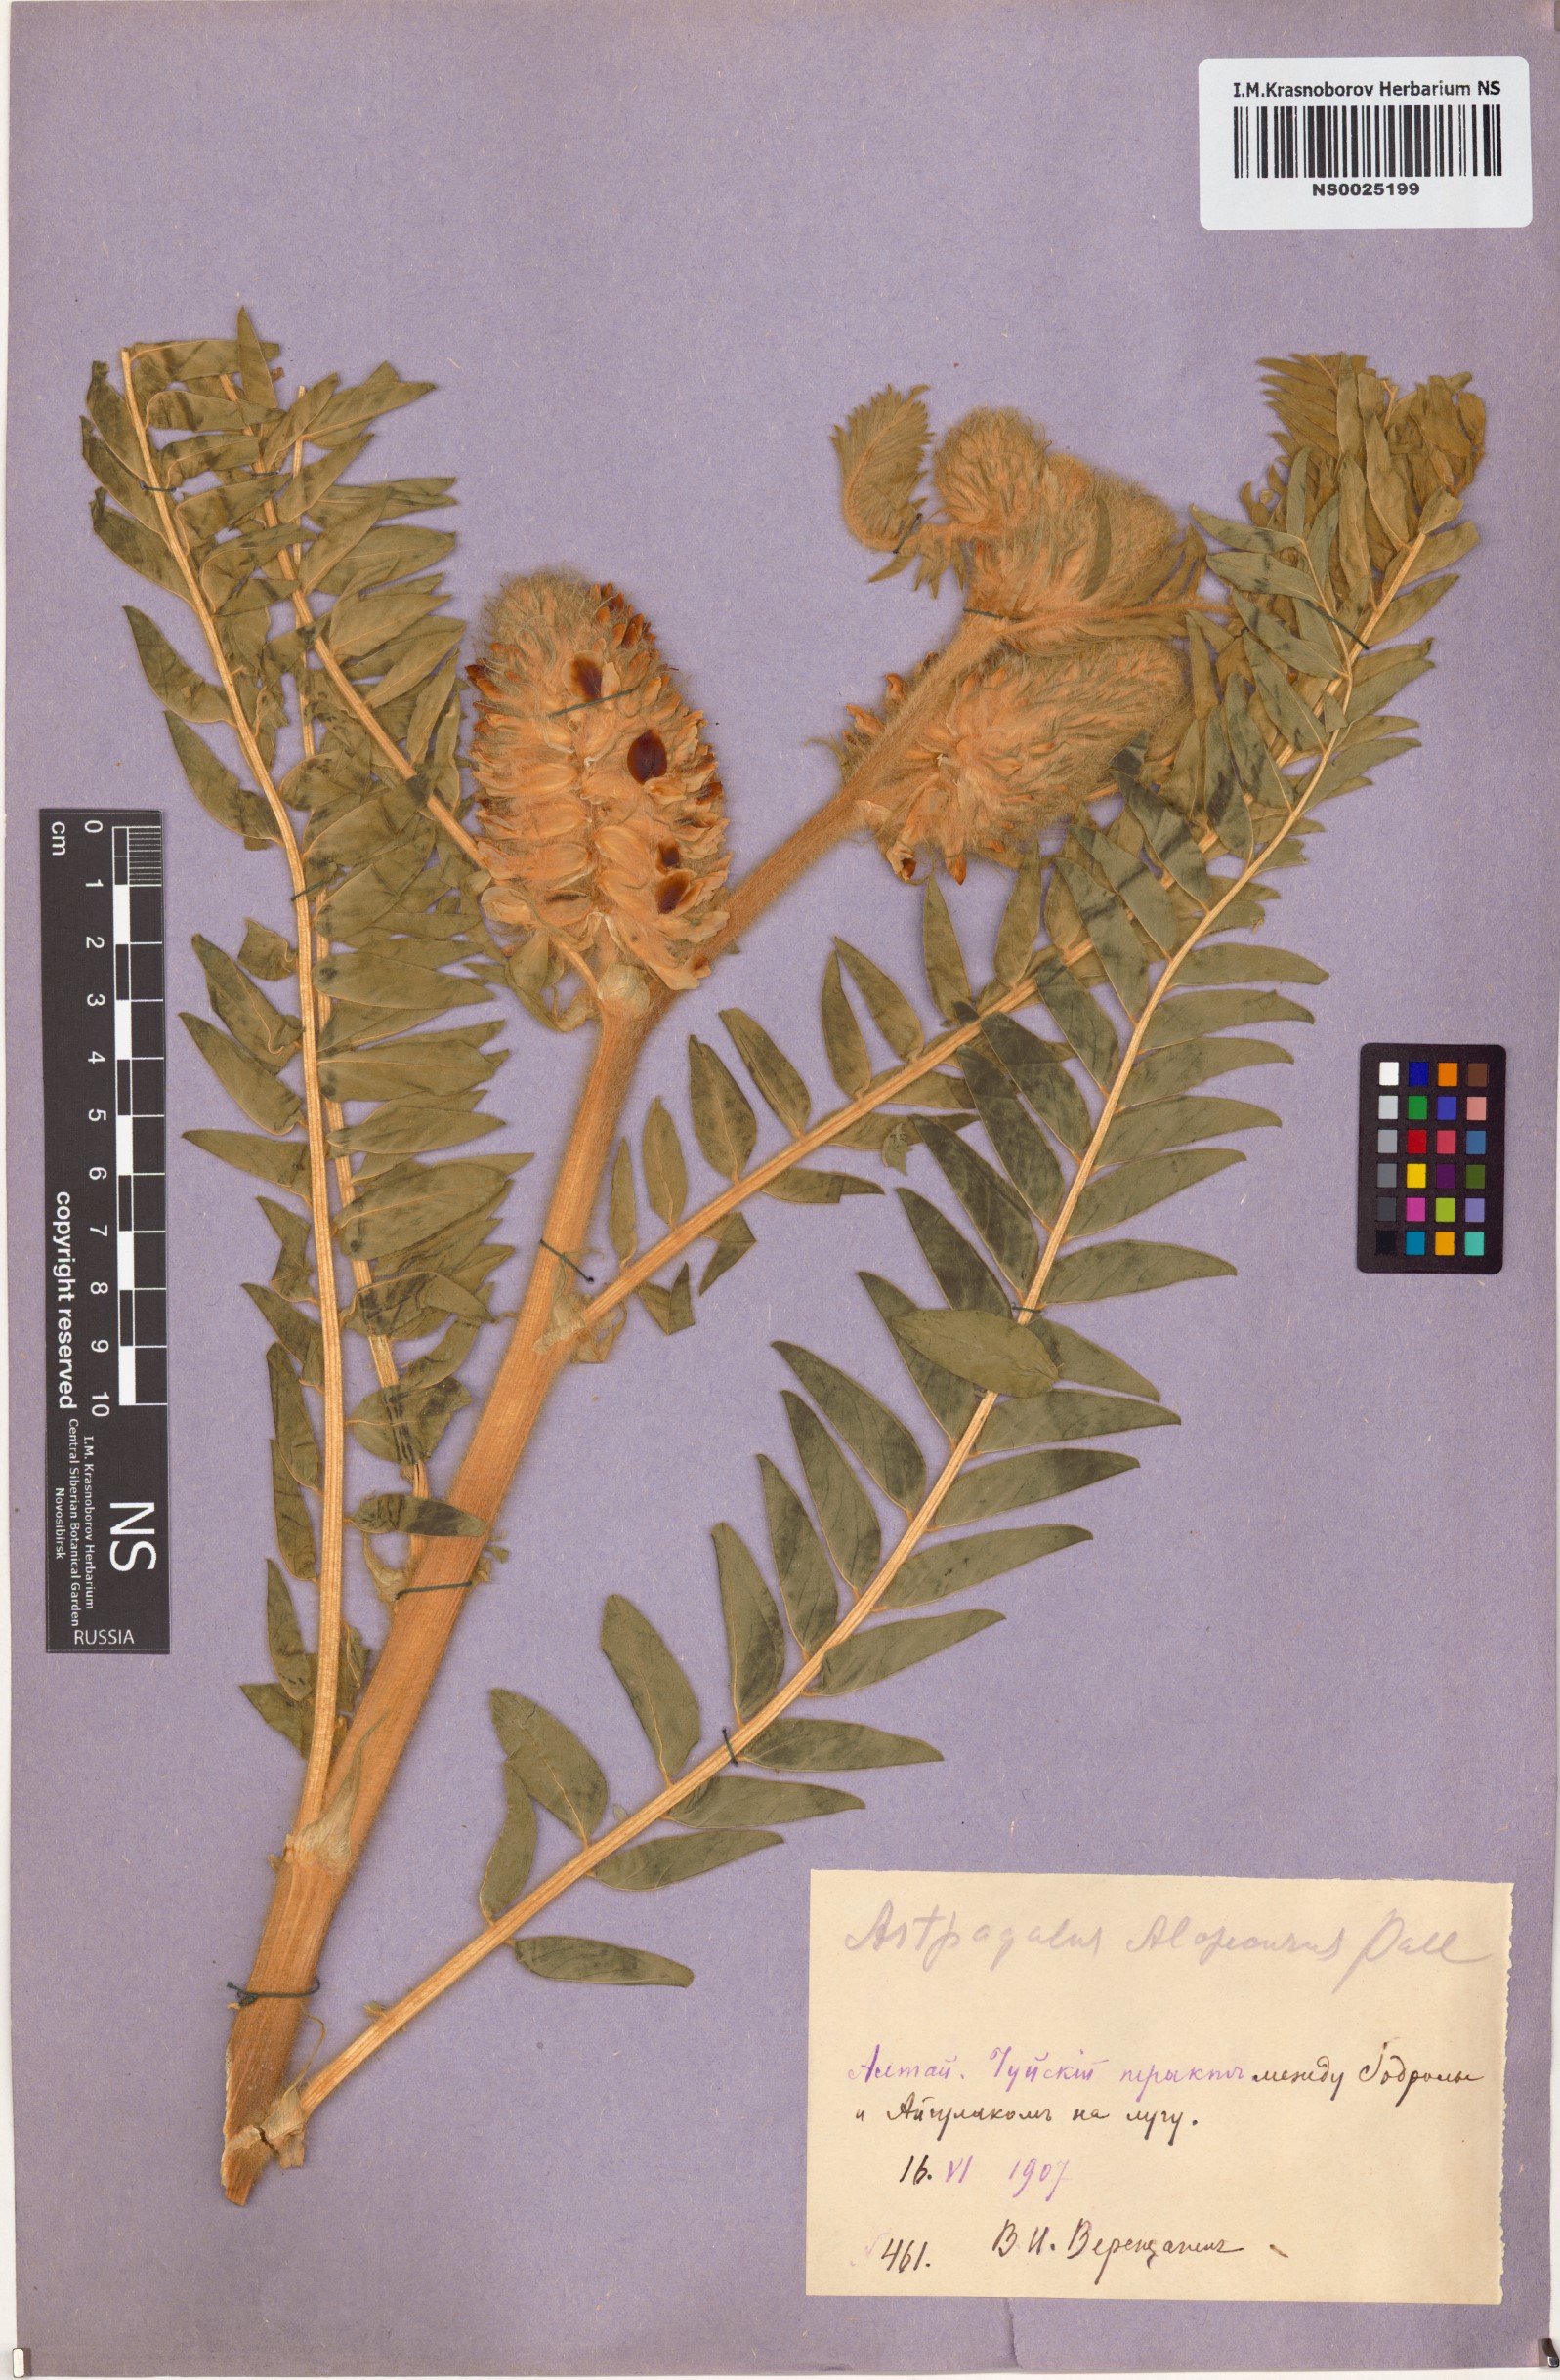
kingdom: Plantae
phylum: Tracheophyta
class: Magnoliopsida
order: Fabales
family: Fabaceae
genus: Astragalus
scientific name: Astragalus alopecurus
